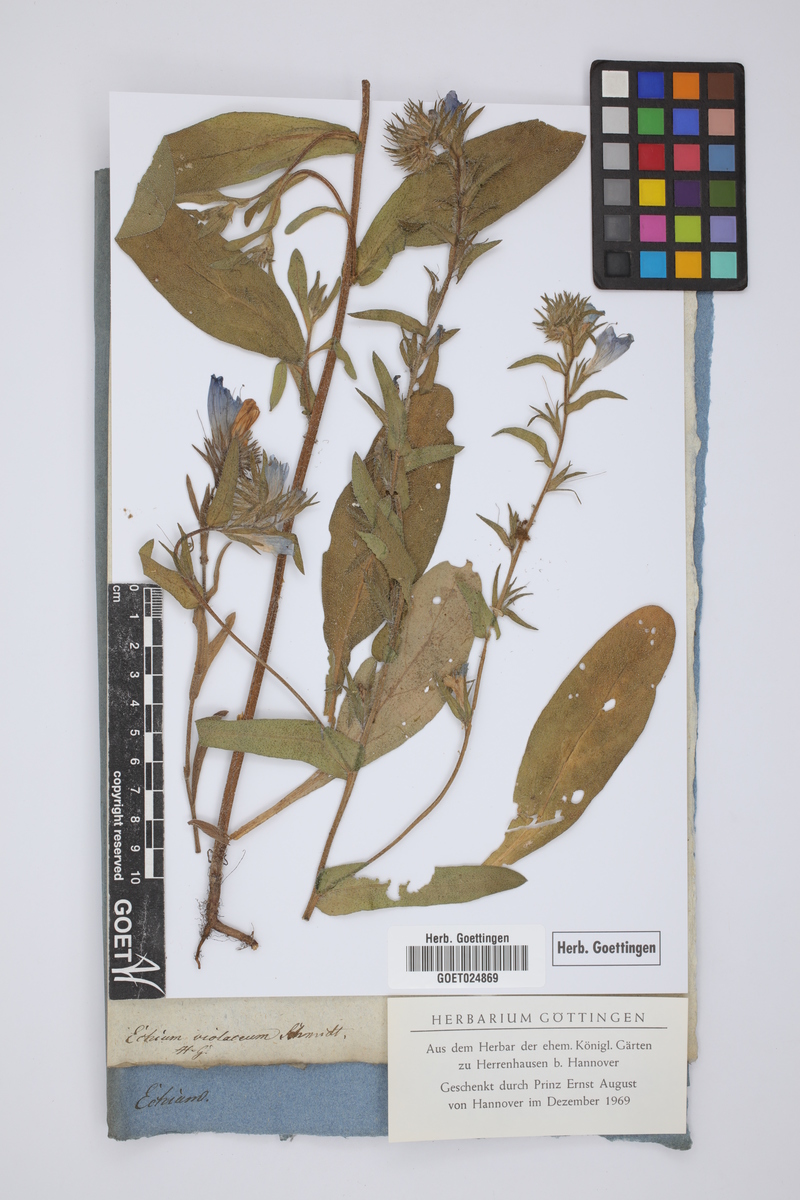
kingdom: Plantae
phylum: Tracheophyta
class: Magnoliopsida
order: Boraginales
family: Boraginaceae
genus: Echium
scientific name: Echium plantagineum
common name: Purple viper's-bugloss
